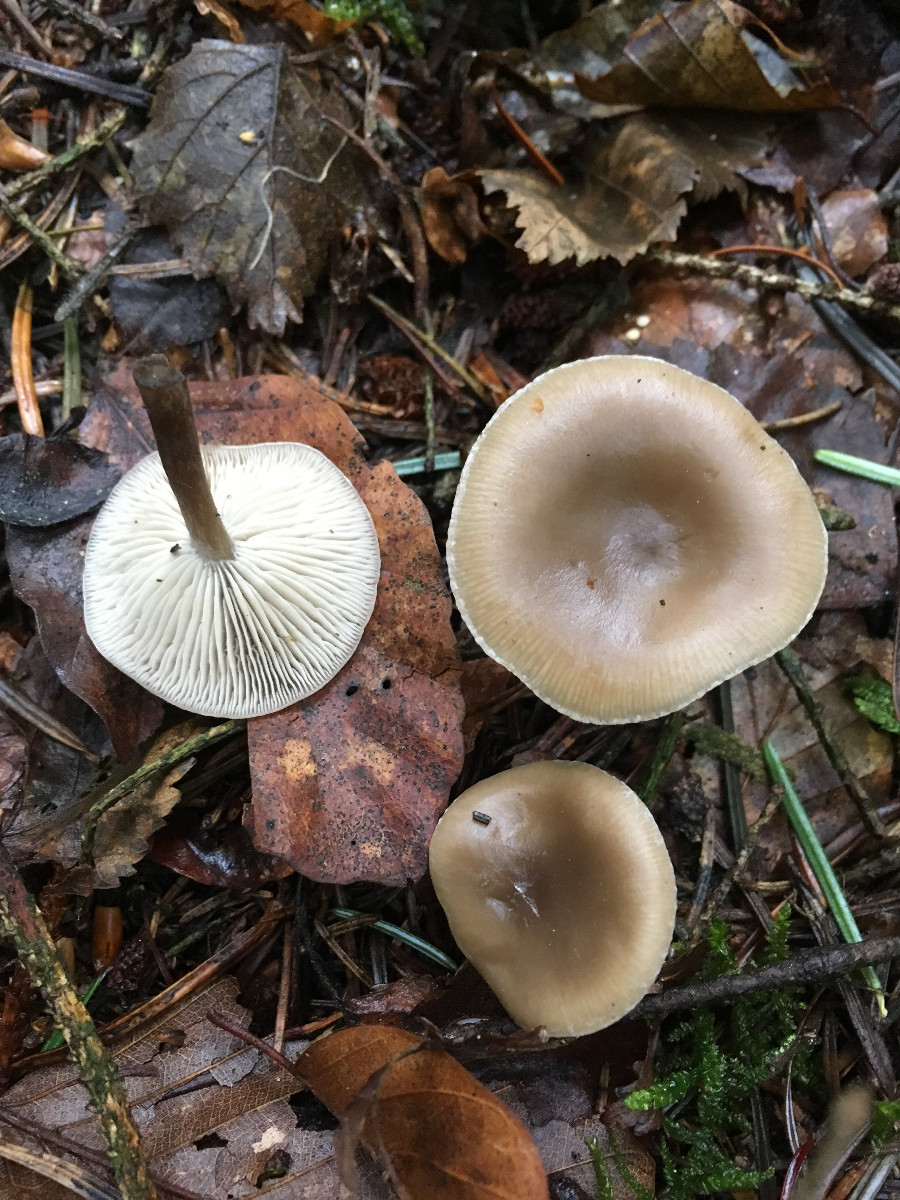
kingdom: Fungi
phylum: Basidiomycota
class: Agaricomycetes
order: Agaricales
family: Tricholomataceae
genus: Clitocybe
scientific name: Clitocybe
